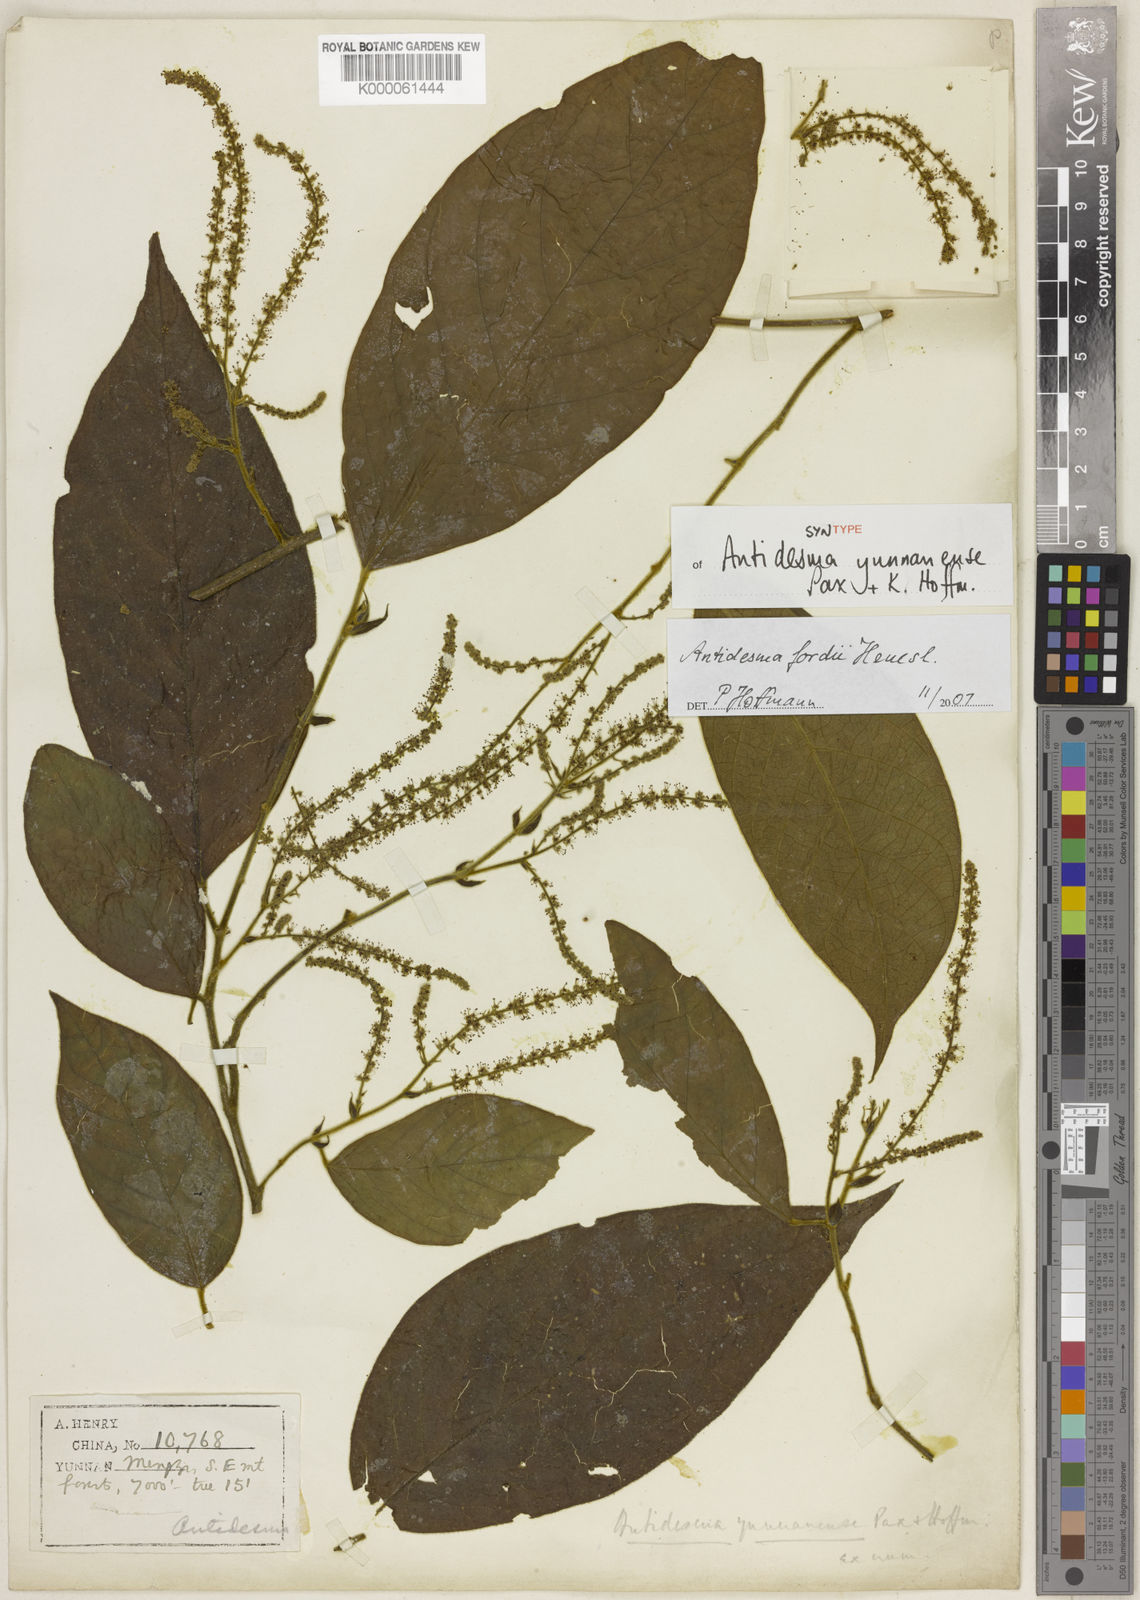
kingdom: Plantae
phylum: Tracheophyta
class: Magnoliopsida
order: Malpighiales
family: Phyllanthaceae
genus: Antidesma
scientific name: Antidesma fordii
